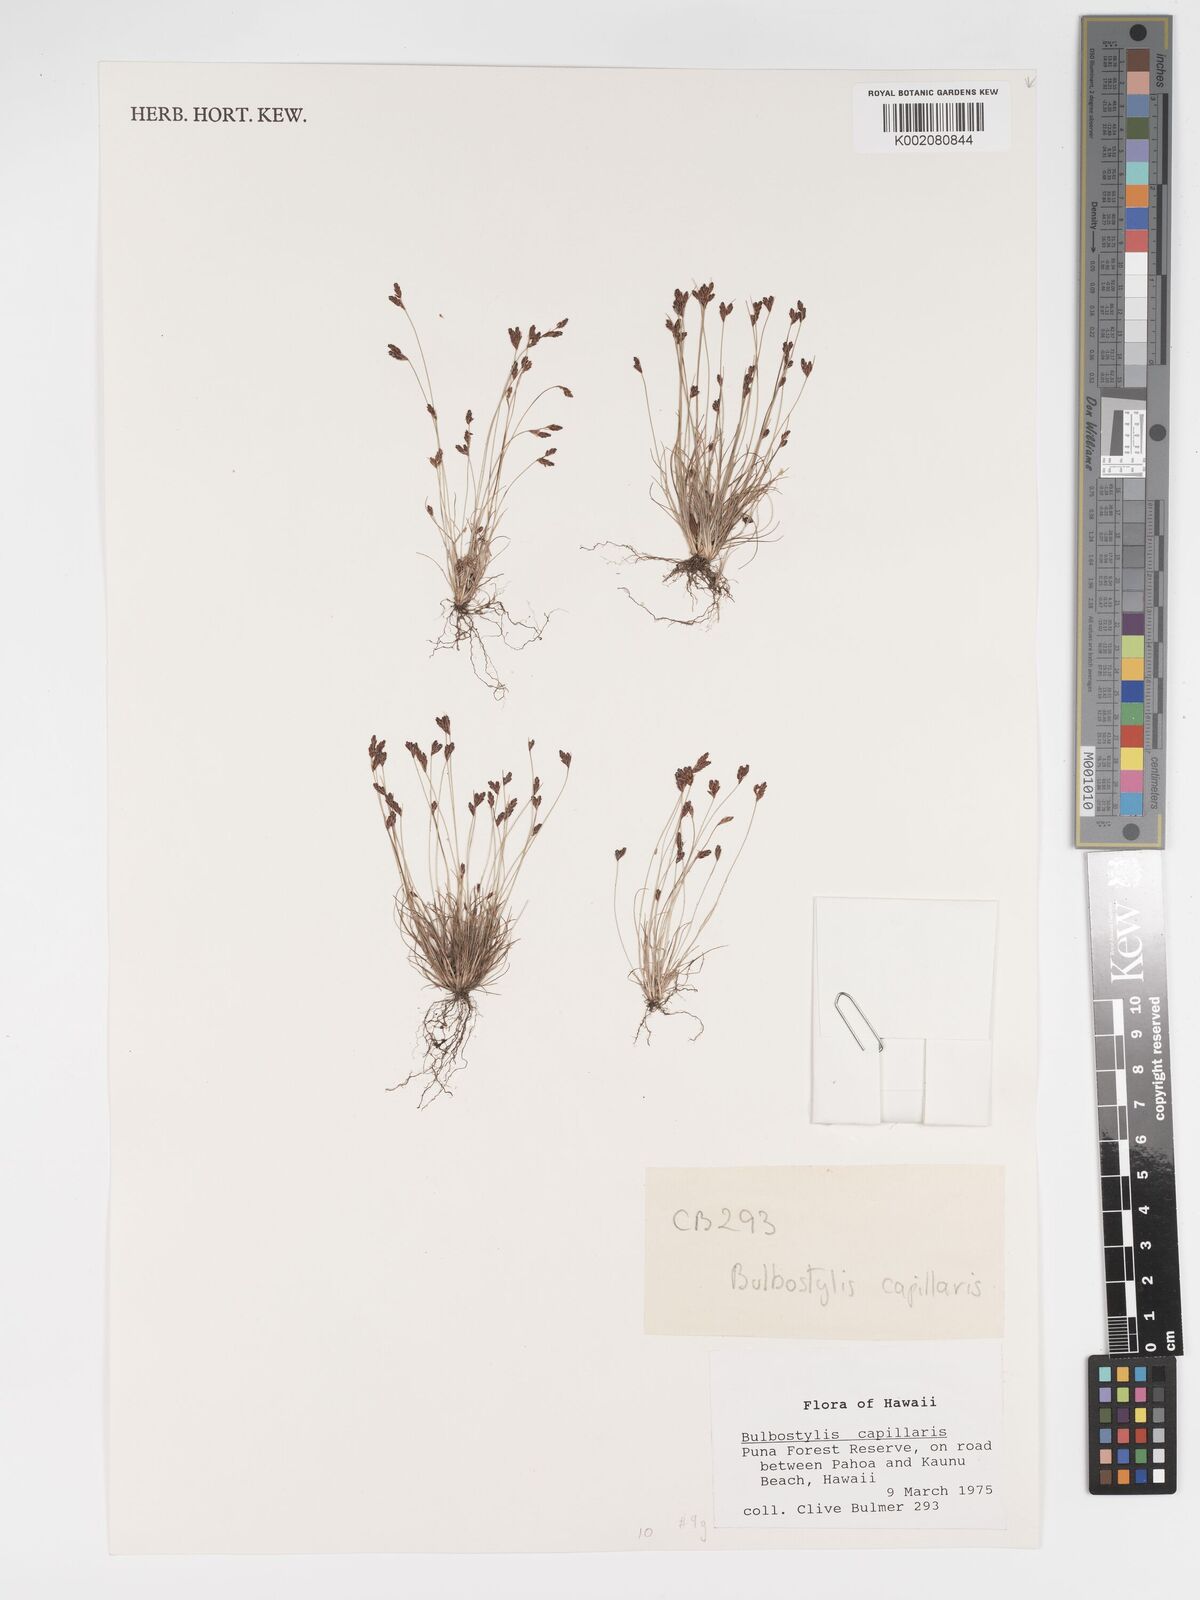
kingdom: Plantae
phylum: Tracheophyta
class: Liliopsida
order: Poales
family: Cyperaceae
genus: Bulbostylis
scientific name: Bulbostylis capillaris
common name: Densetuft hairsedge
